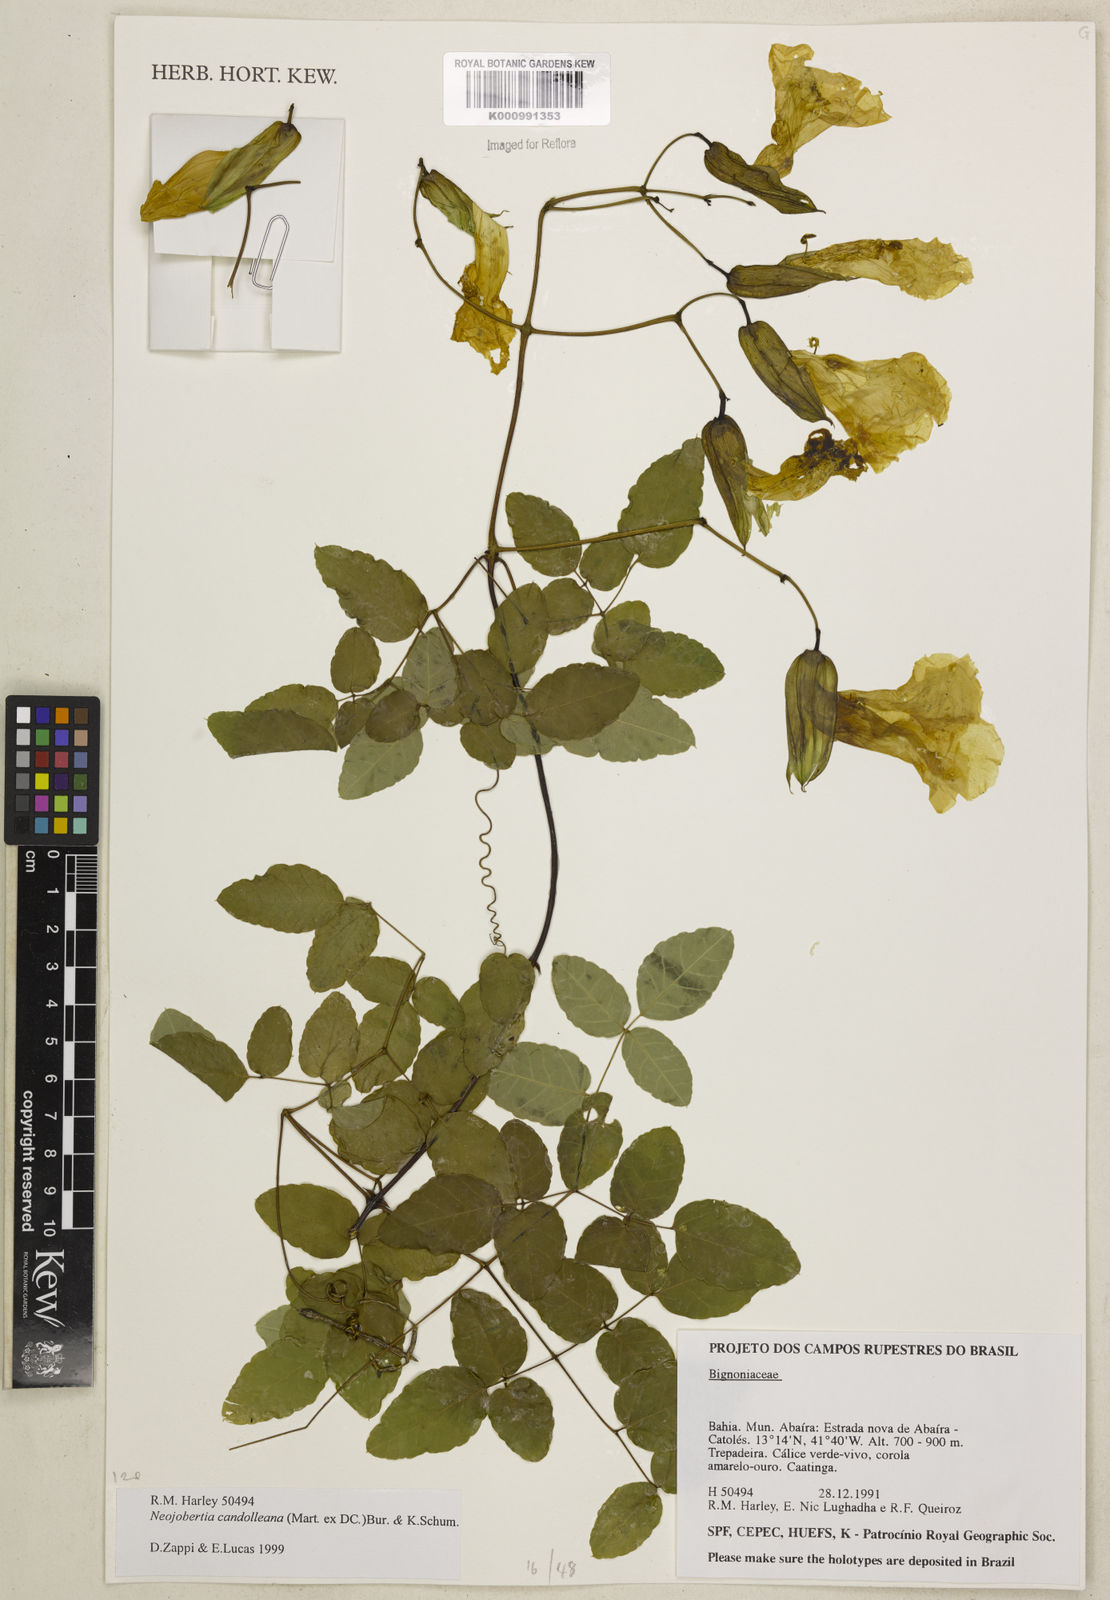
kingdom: Plantae
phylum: Tracheophyta
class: Magnoliopsida
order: Lamiales
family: Bignoniaceae
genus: Adenocalymma
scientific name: Adenocalymma candolleanum
